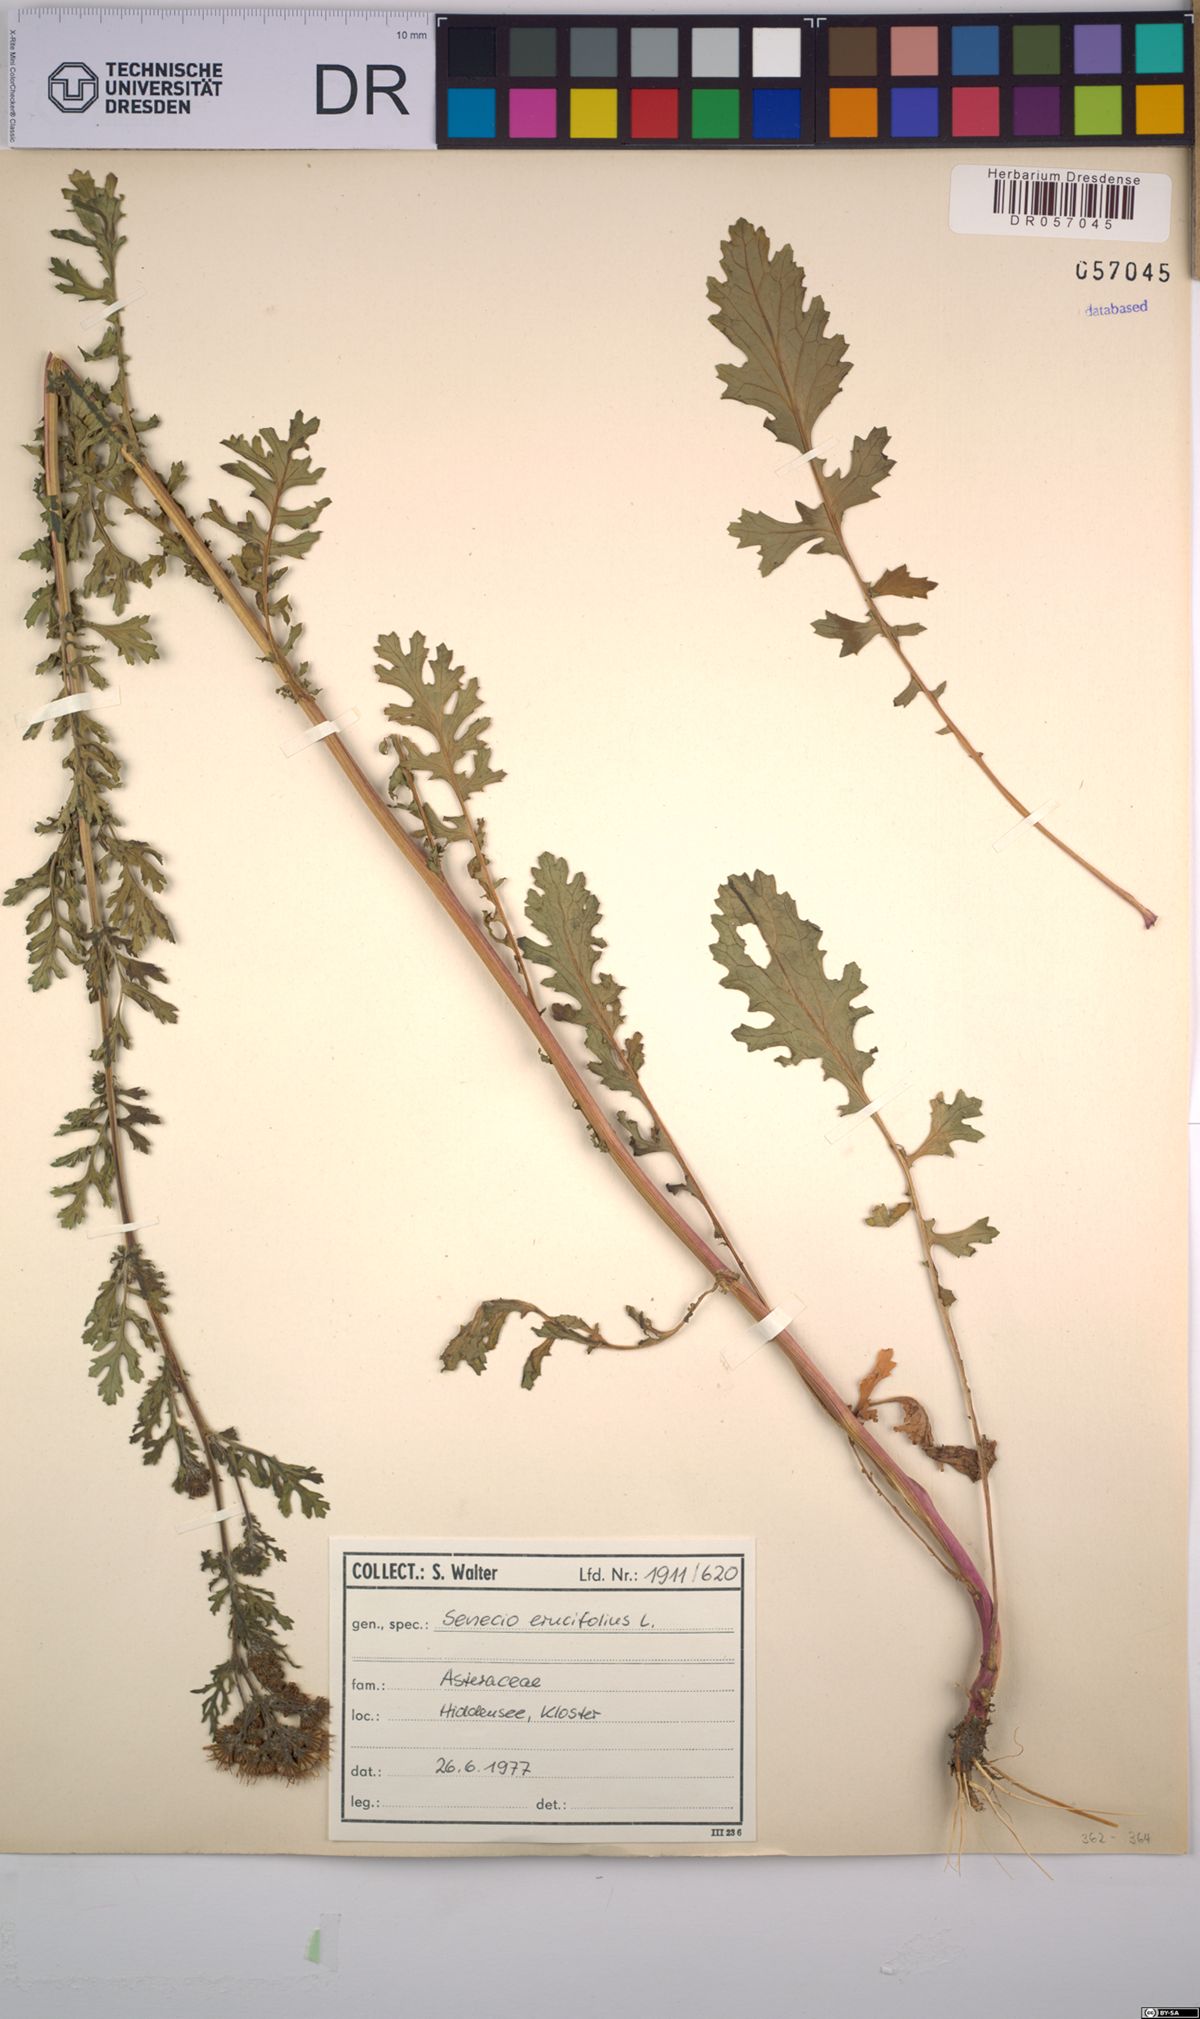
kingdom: Plantae
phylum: Tracheophyta
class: Magnoliopsida
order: Asterales
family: Asteraceae
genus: Jacobaea
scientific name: Jacobaea erucifolia
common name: Hoary ragwort
